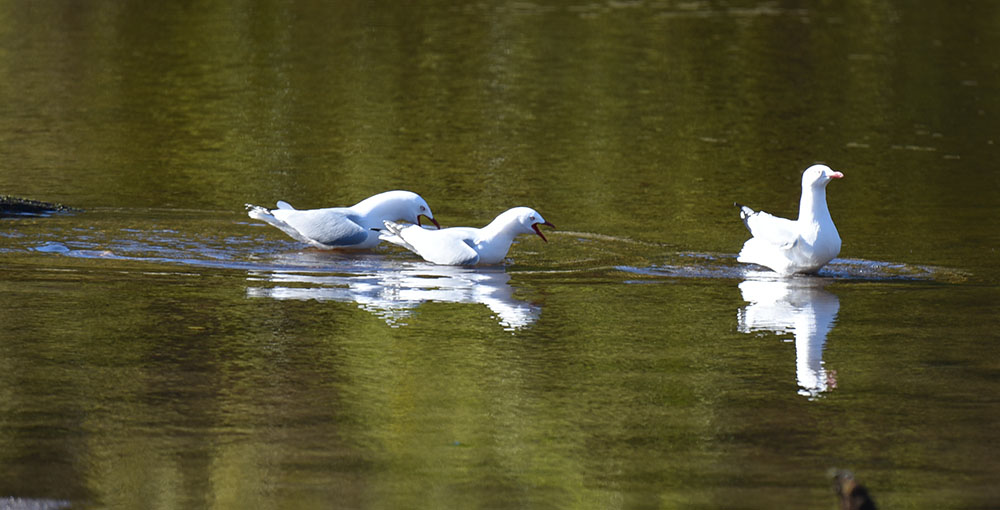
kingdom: Animalia
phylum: Chordata
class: Aves
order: Charadriiformes
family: Laridae
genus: Chroicocephalus
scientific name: Chroicocephalus novaehollandiae
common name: Silver gull
